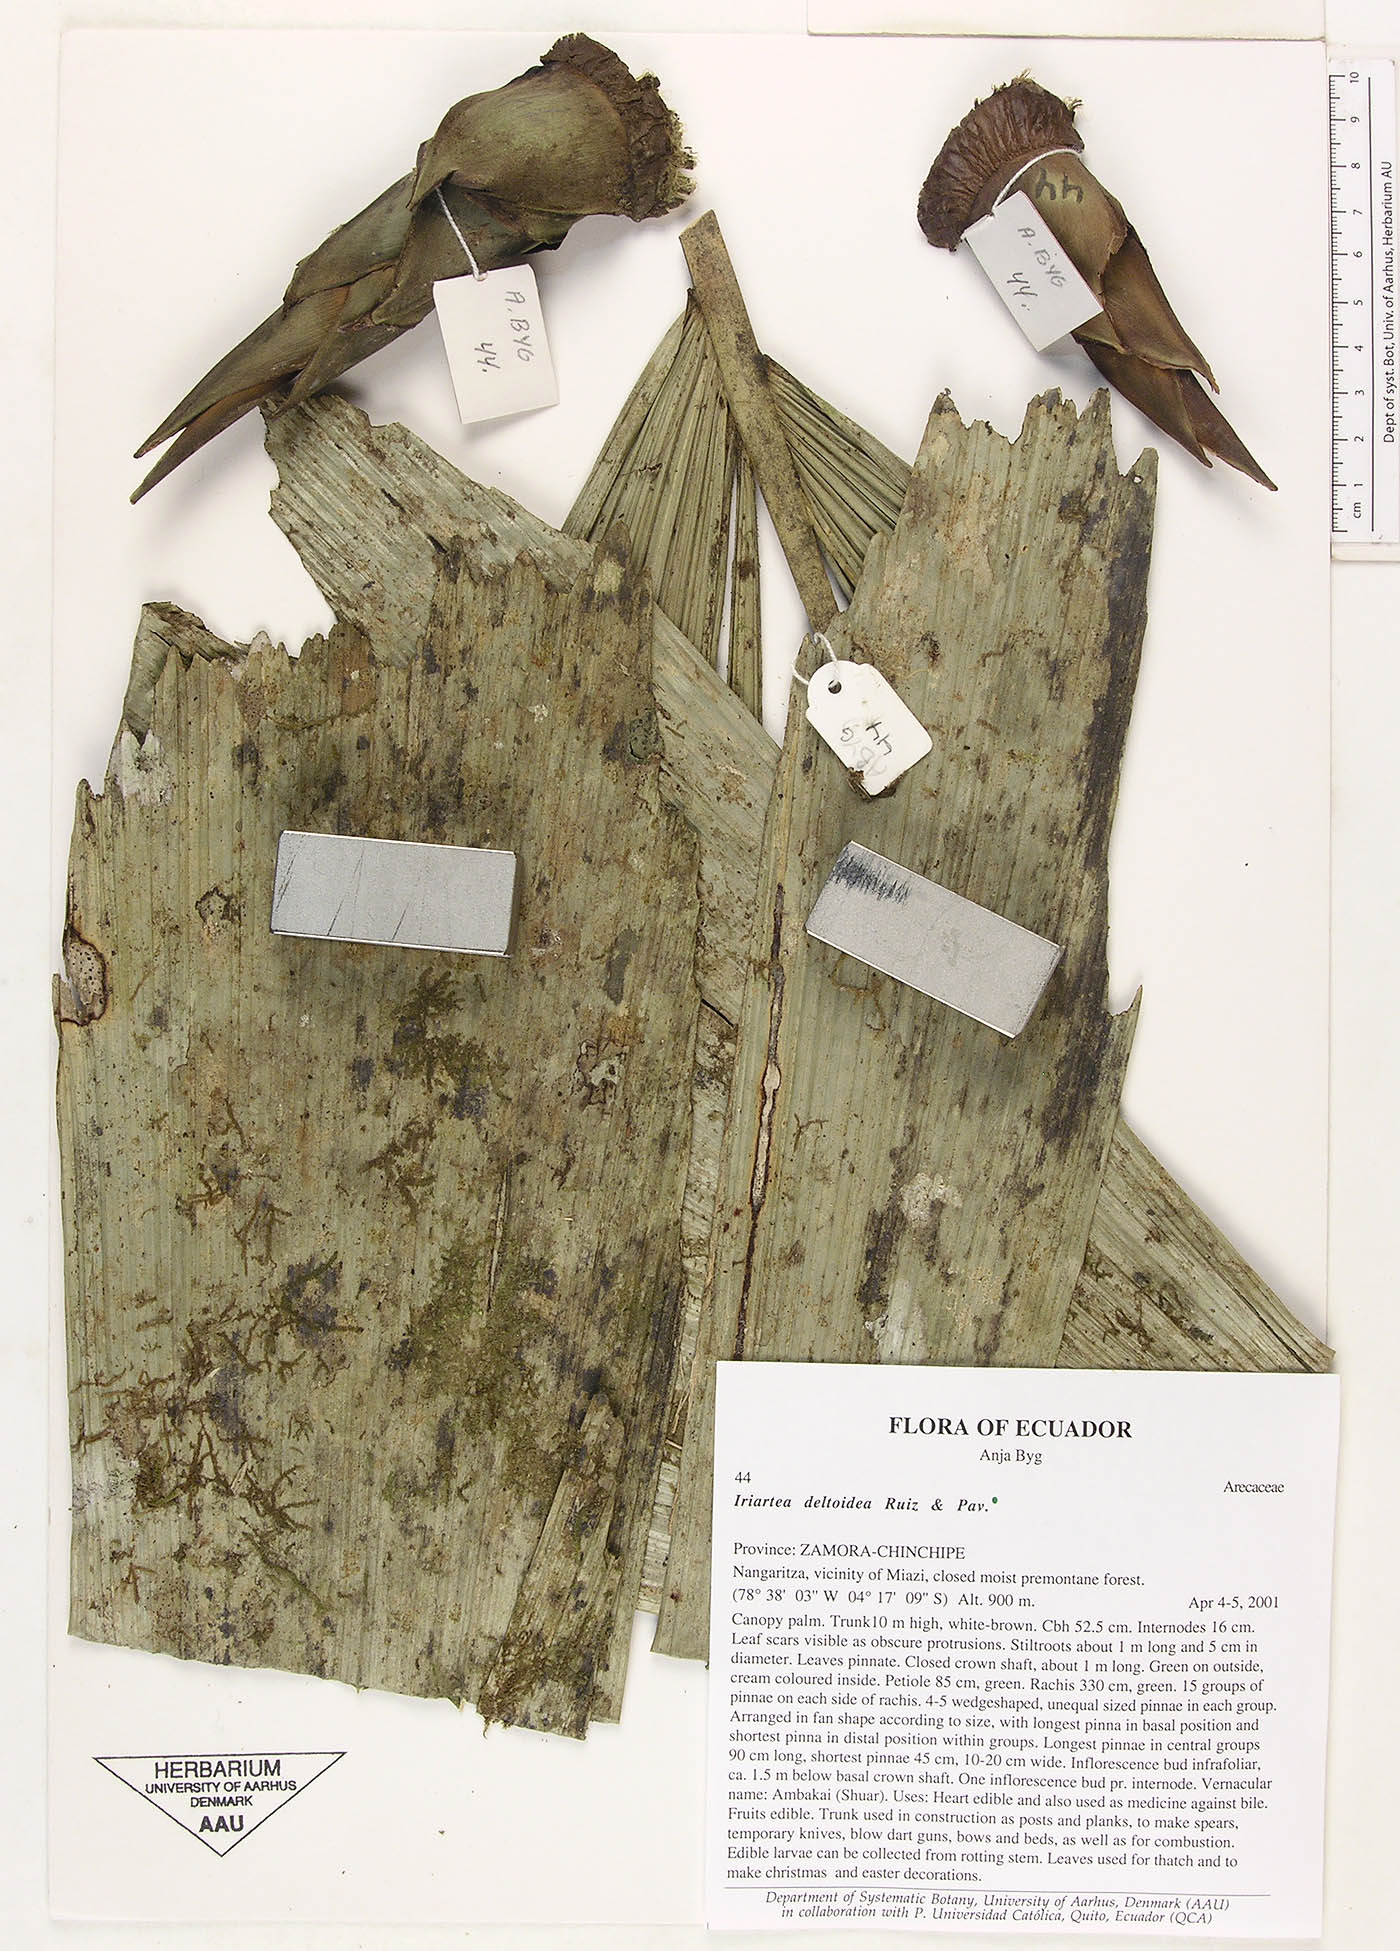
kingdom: Plantae
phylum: Tracheophyta
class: Liliopsida
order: Arecales
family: Arecaceae
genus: Iriartea
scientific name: Iriartea deltoidea
